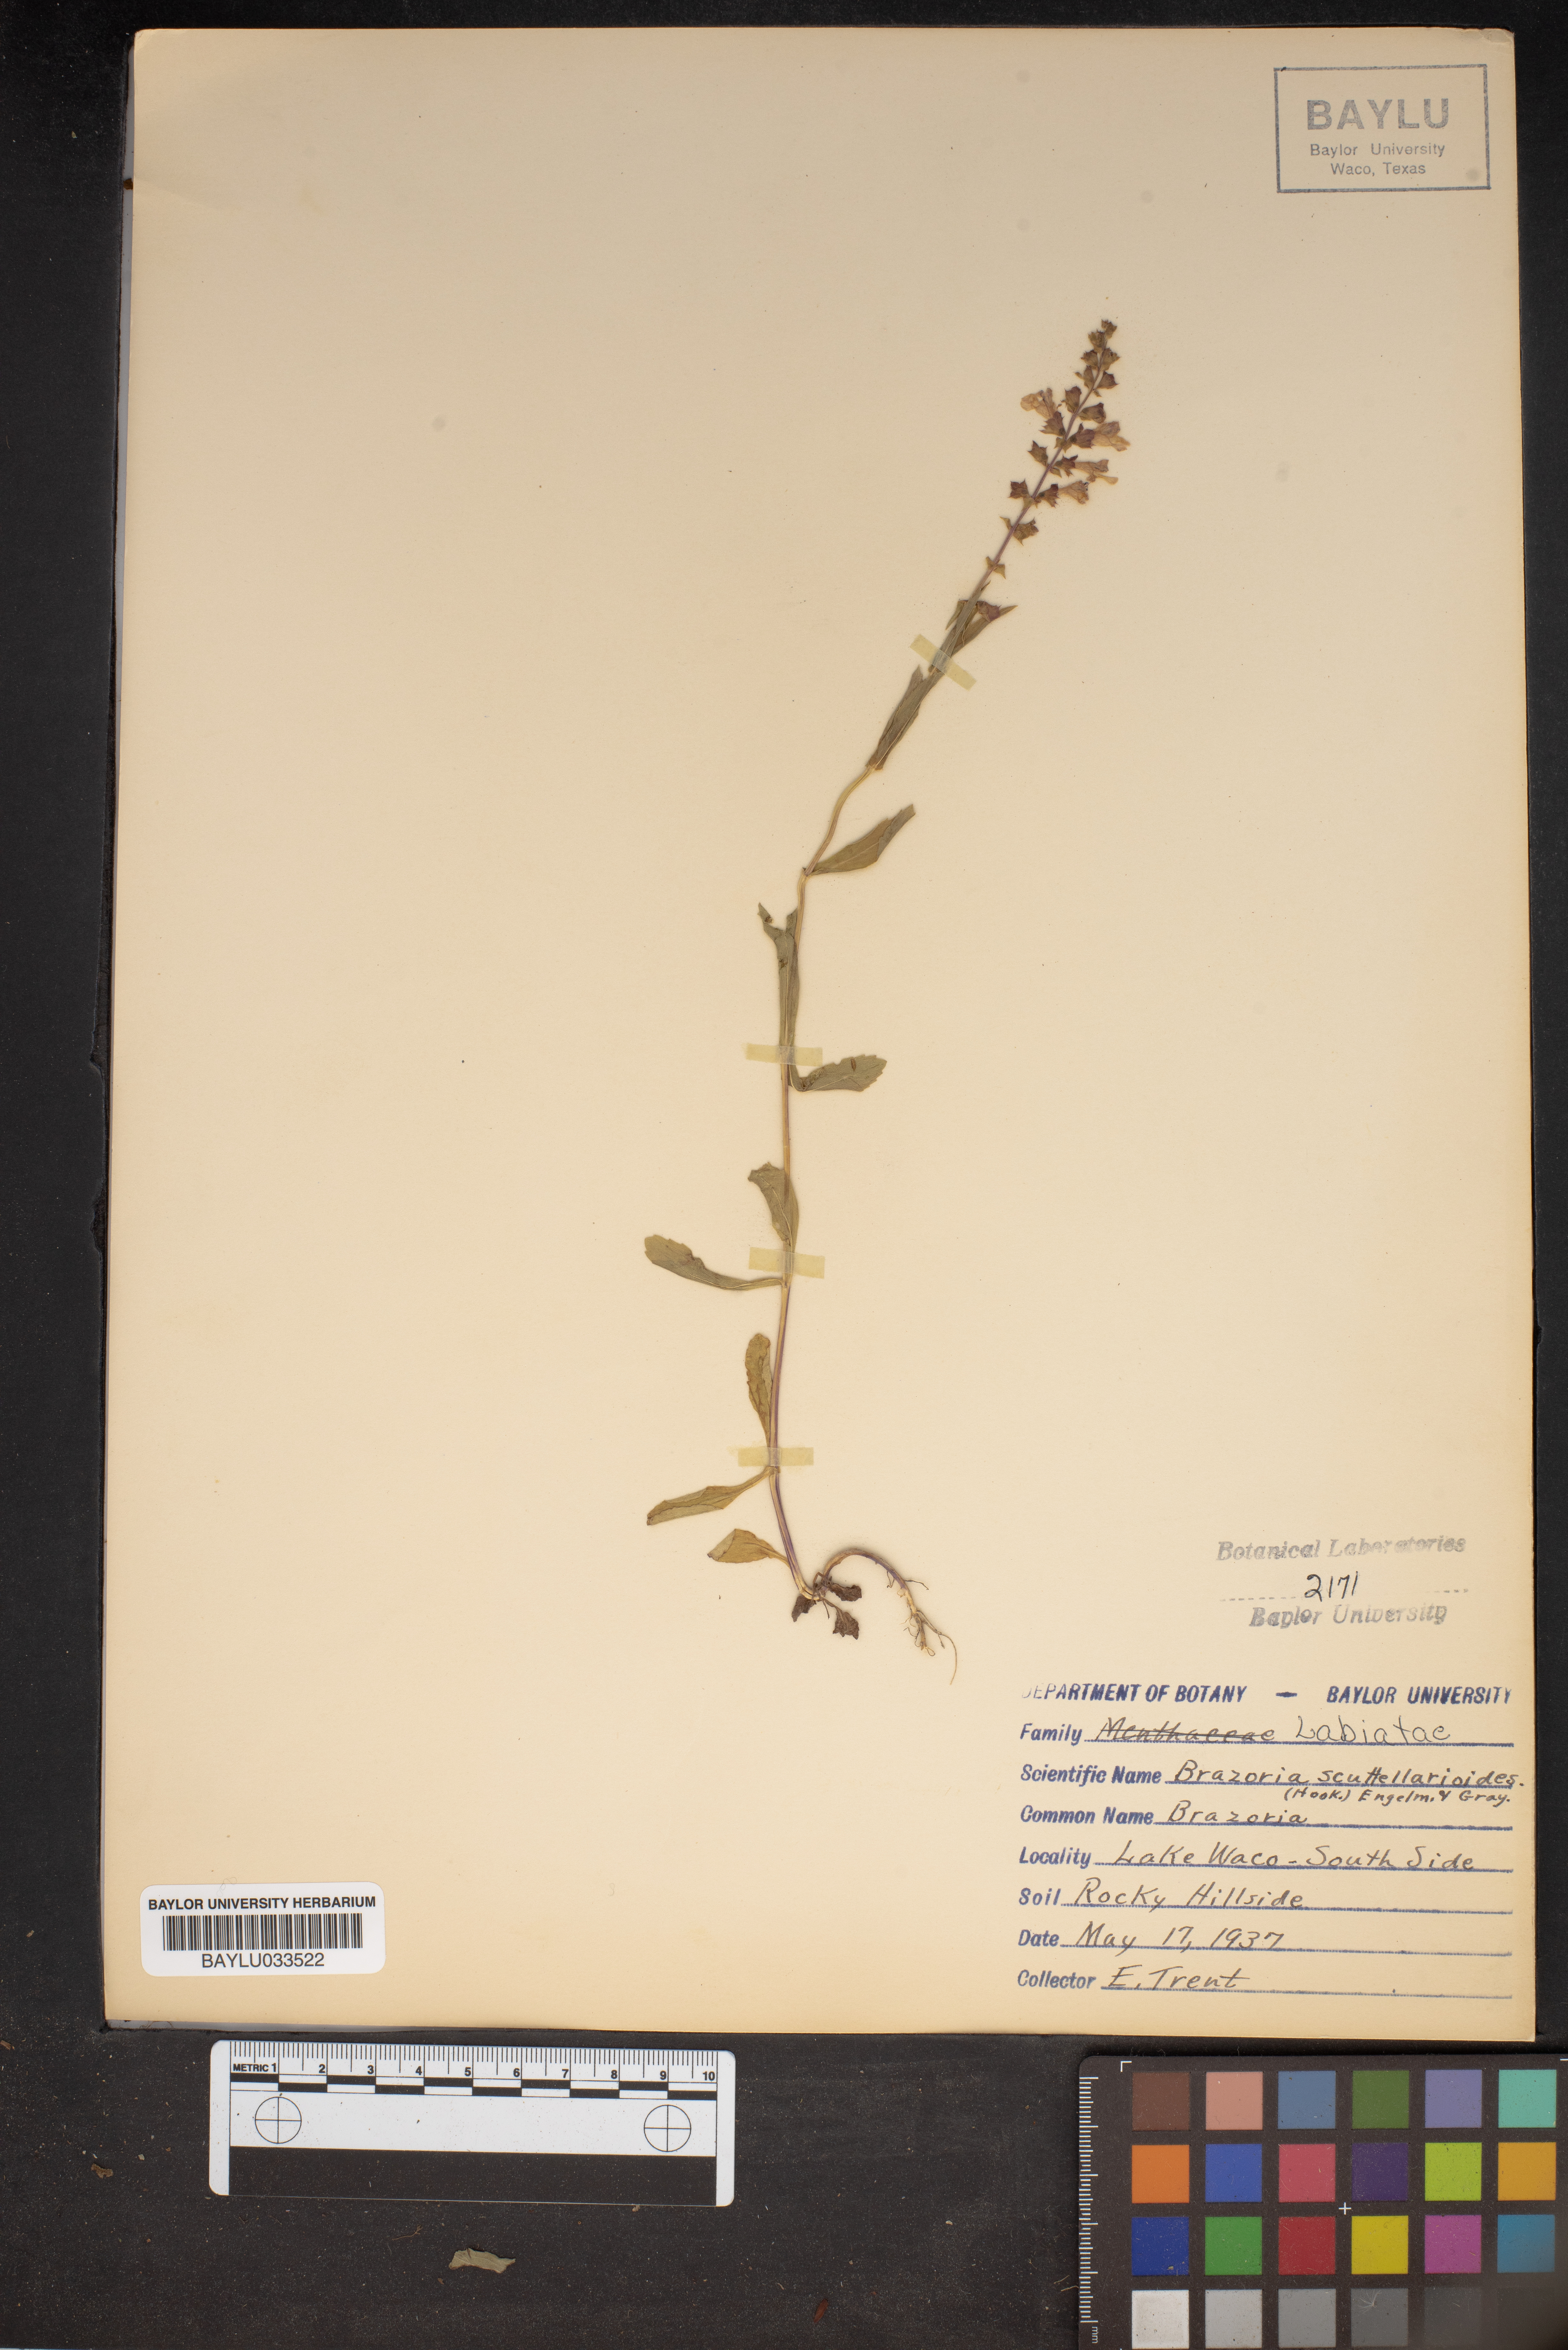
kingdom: Plantae
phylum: Tracheophyta
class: Magnoliopsida
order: Lamiales
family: Lamiaceae
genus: Warnockia
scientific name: Warnockia scutellarioides
